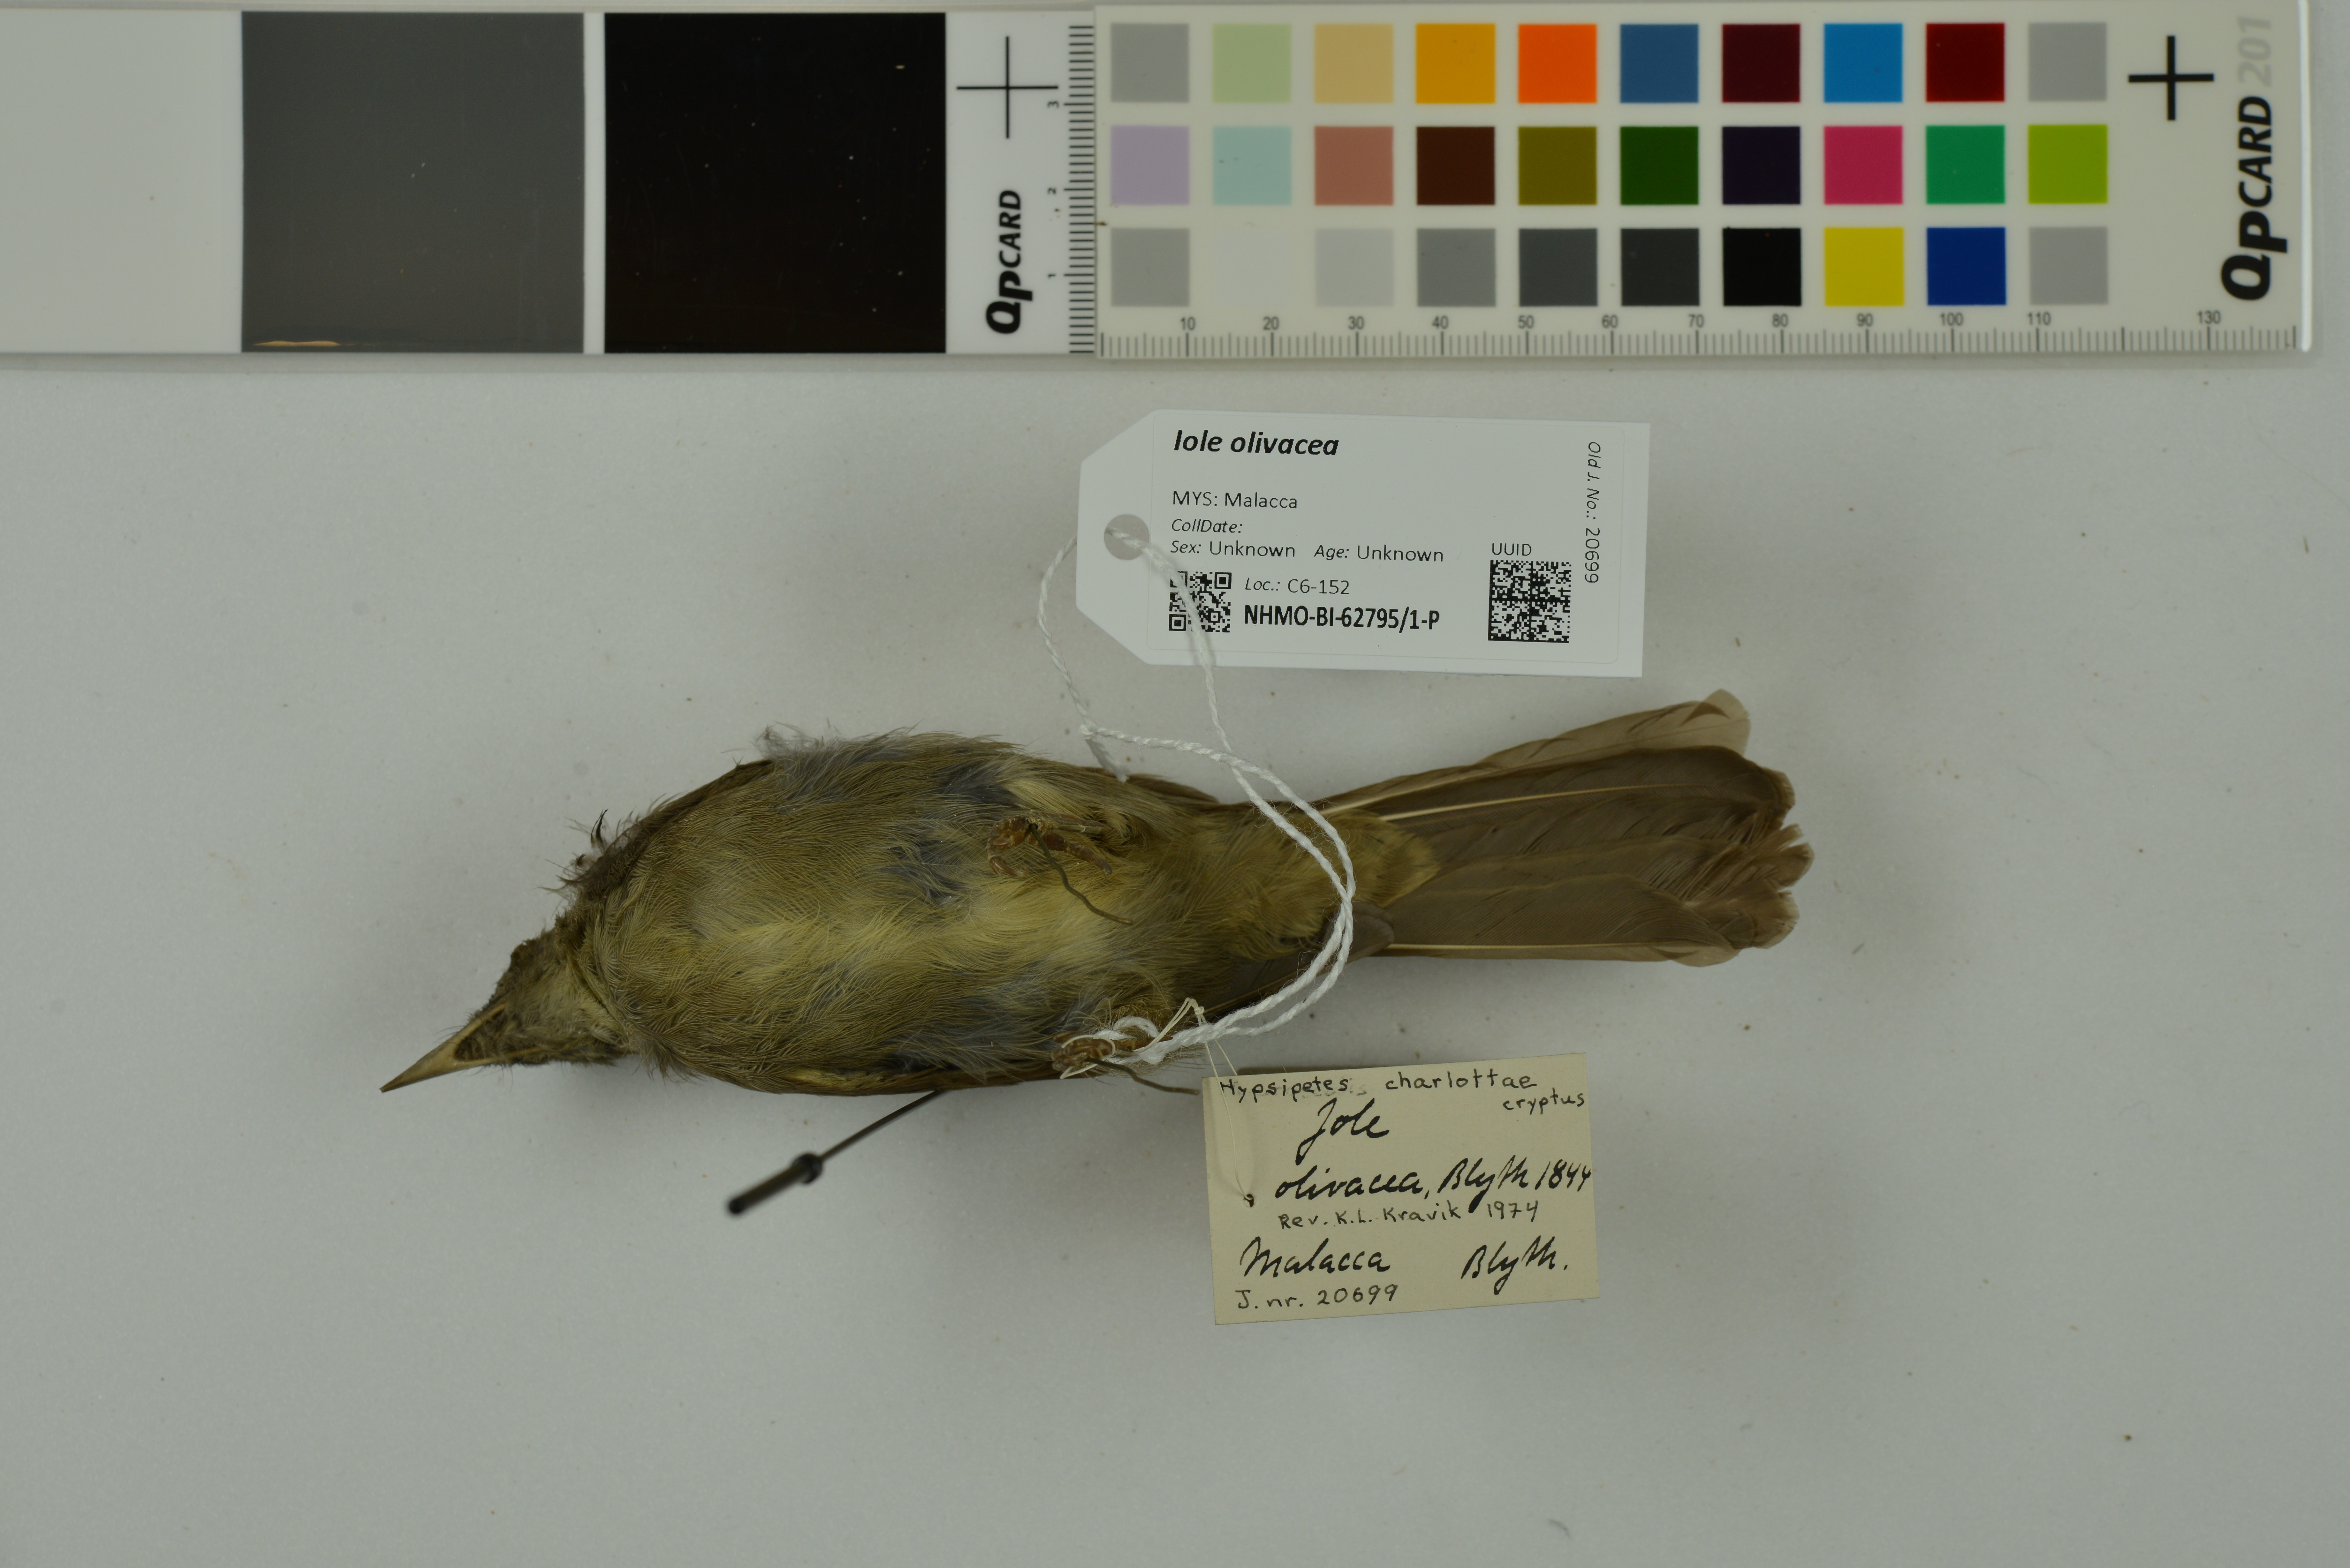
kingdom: Animalia
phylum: Chordata
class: Aves
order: Passeriformes
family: Pycnonotidae
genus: Iole
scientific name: Iole crypta
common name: Buff-vented bulbul
